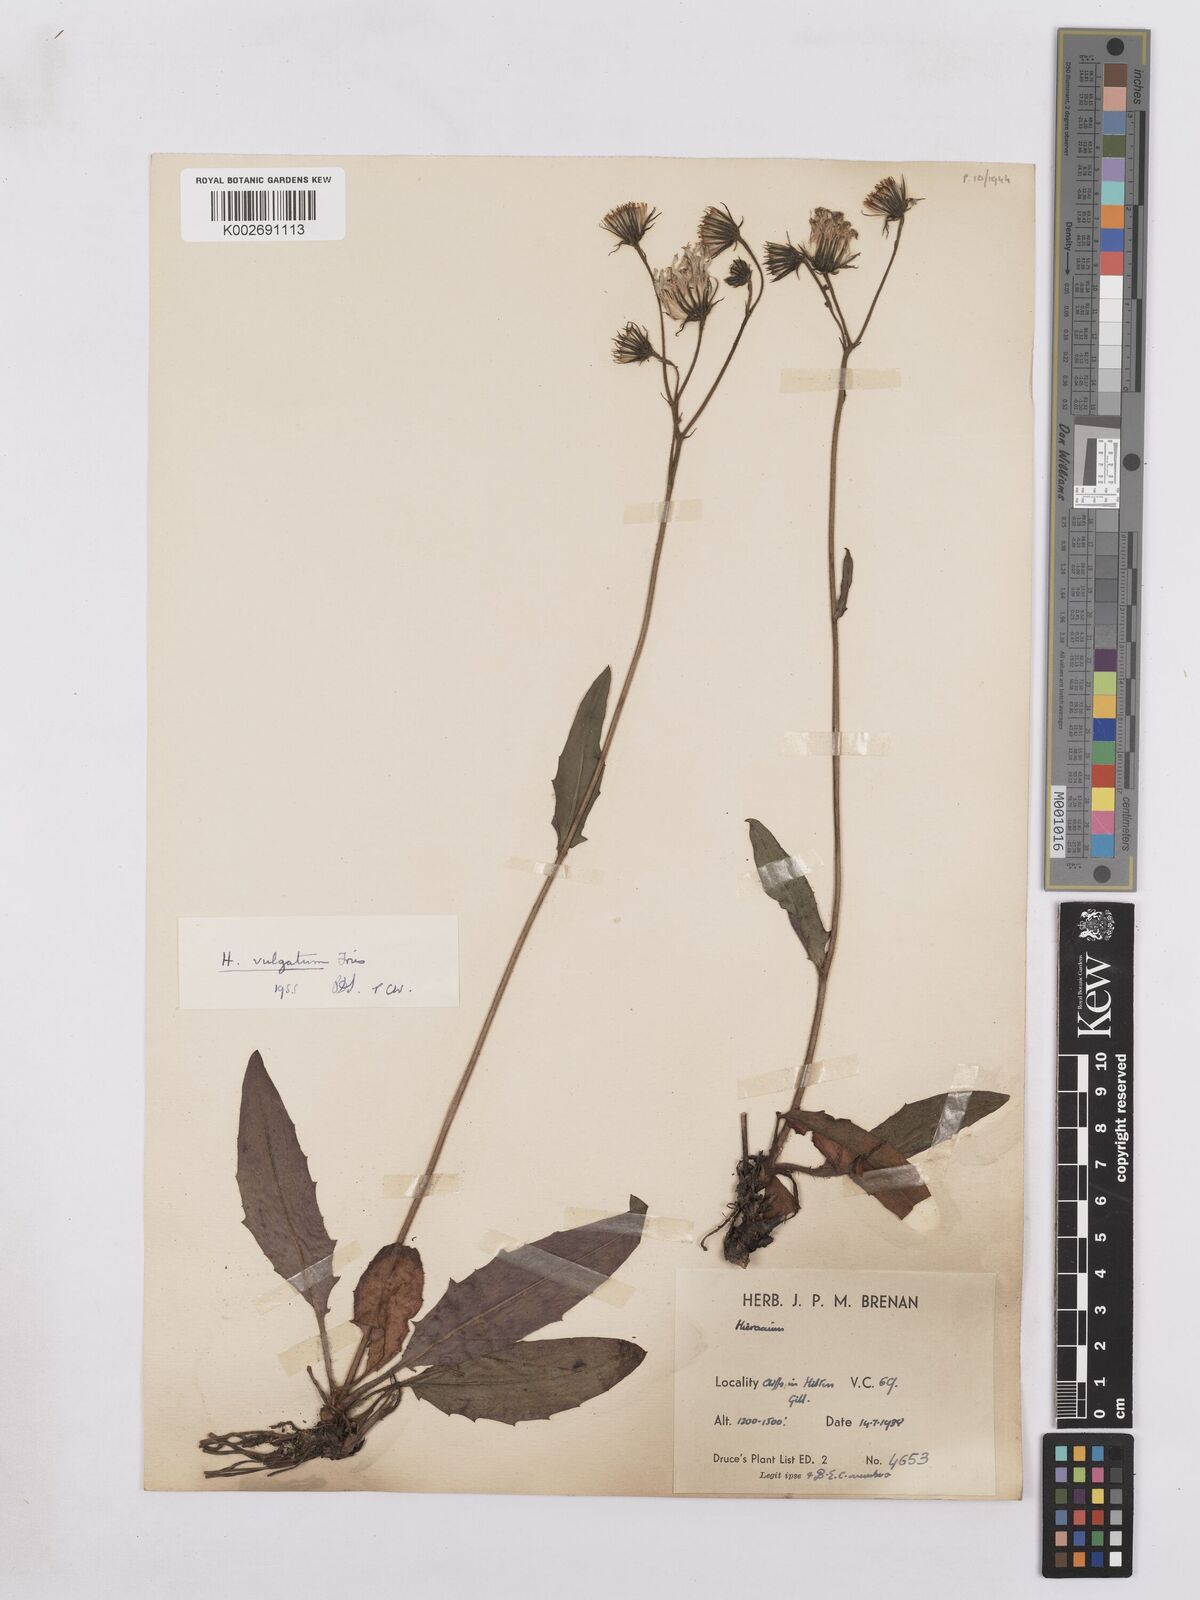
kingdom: Plantae
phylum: Tracheophyta
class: Magnoliopsida
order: Asterales
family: Asteraceae
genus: Hieracium
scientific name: Hieracium lachenalii
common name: Common hawkweed
